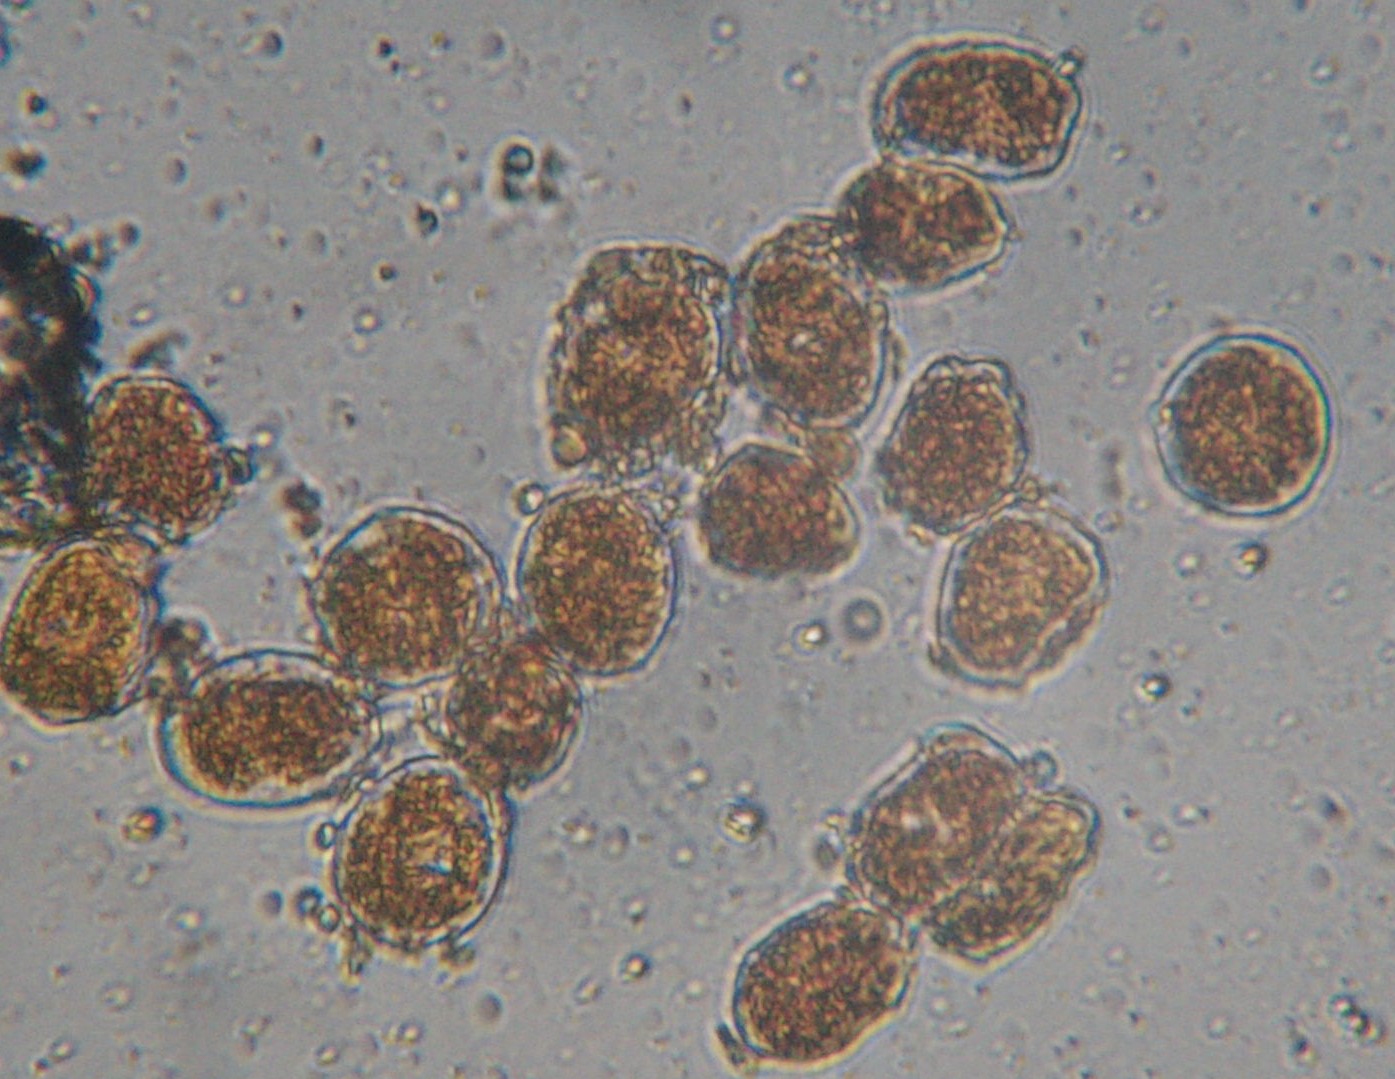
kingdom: Fungi
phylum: Basidiomycota
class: Pucciniomycetes
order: Pucciniales
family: Pucciniaceae
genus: Puccinia
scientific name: Puccinia poarum
